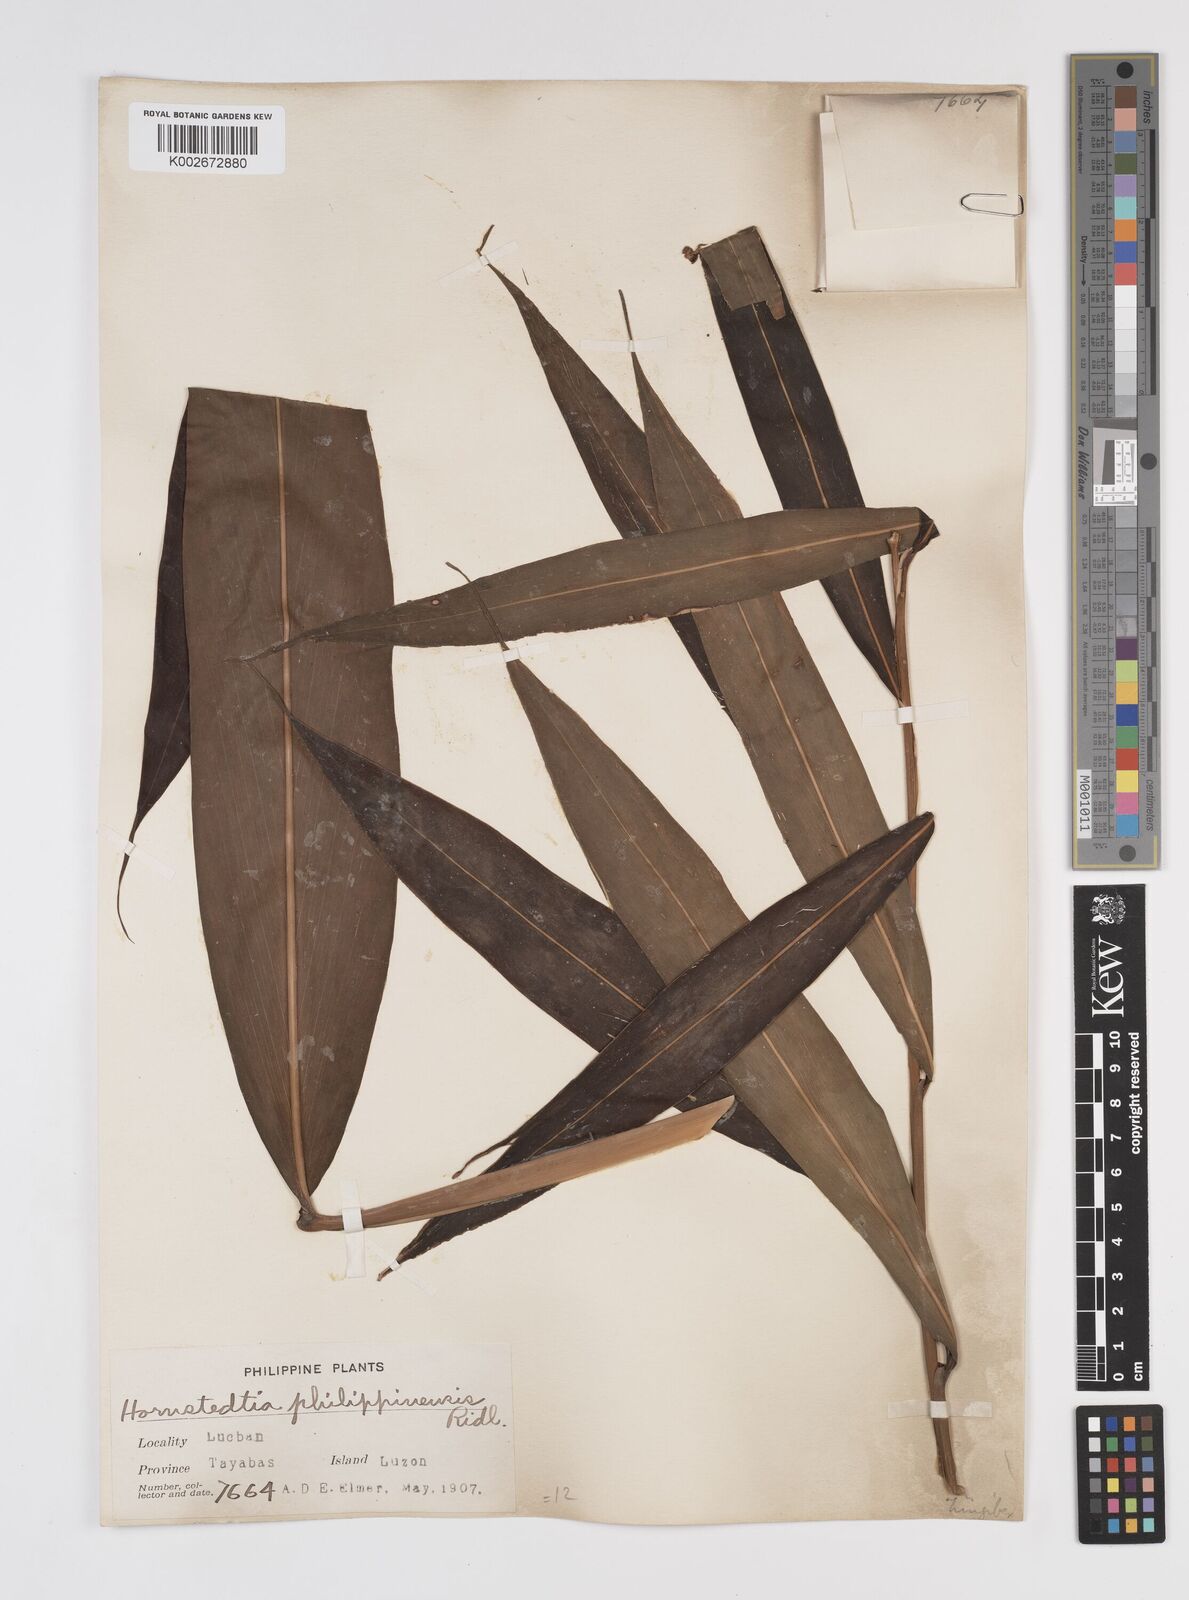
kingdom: Plantae
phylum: Tracheophyta
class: Liliopsida
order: Zingiberales
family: Zingiberaceae
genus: Etlingera
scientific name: Etlingera philippinensis
